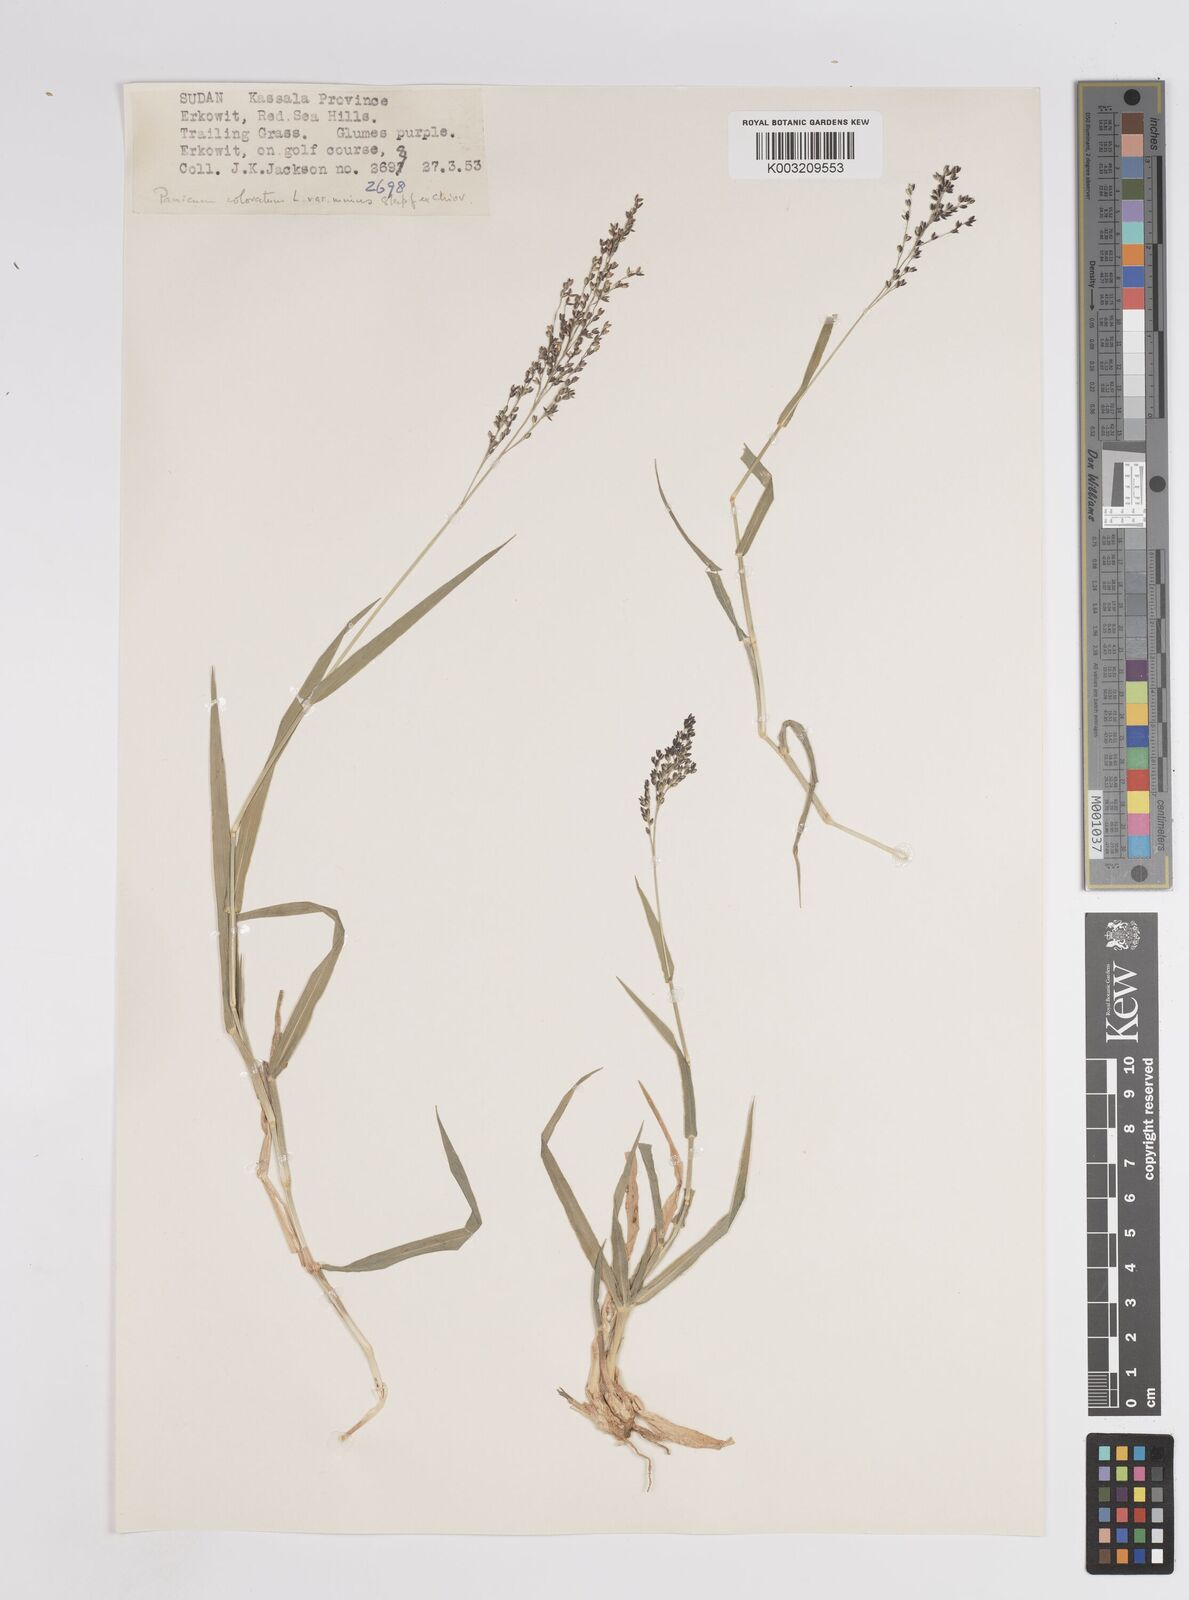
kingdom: Plantae
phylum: Tracheophyta
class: Liliopsida
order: Poales
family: Poaceae
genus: Panicum
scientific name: Panicum coloratum
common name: Kleingrass
